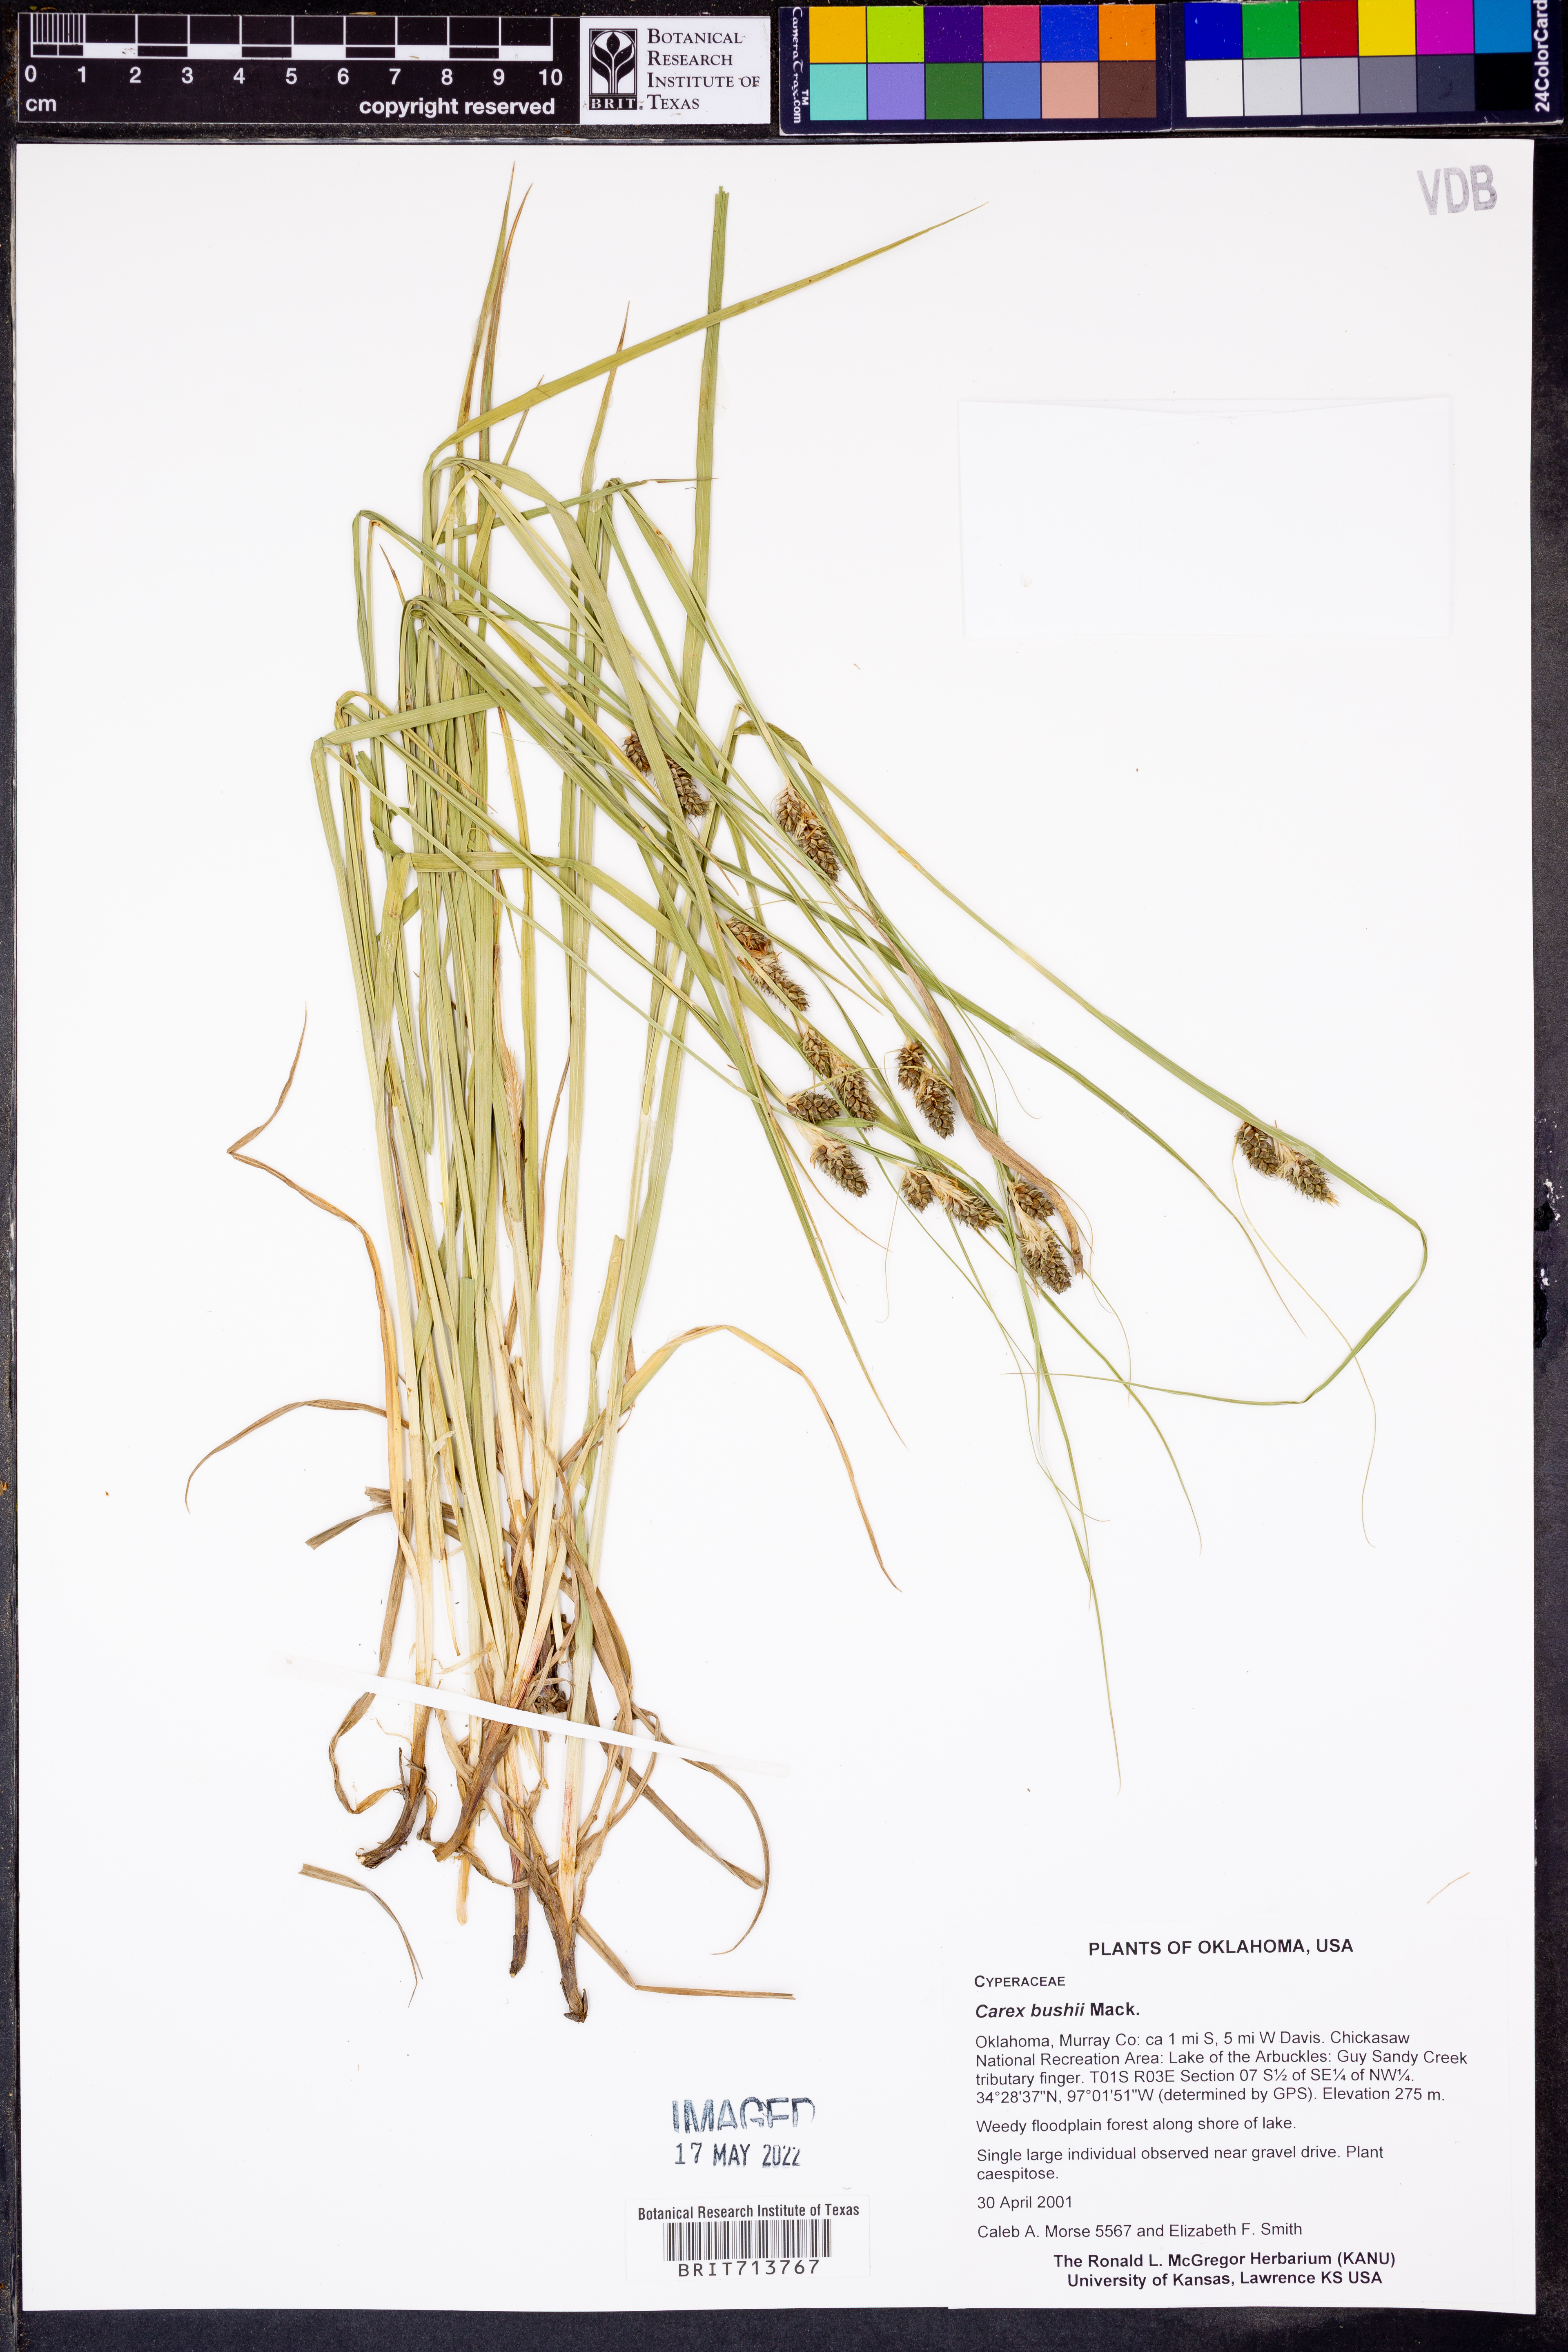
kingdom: Plantae
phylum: Tracheophyta
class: Liliopsida
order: Poales
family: Cyperaceae
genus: Carex
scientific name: Carex bushii
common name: Bush's sedge
